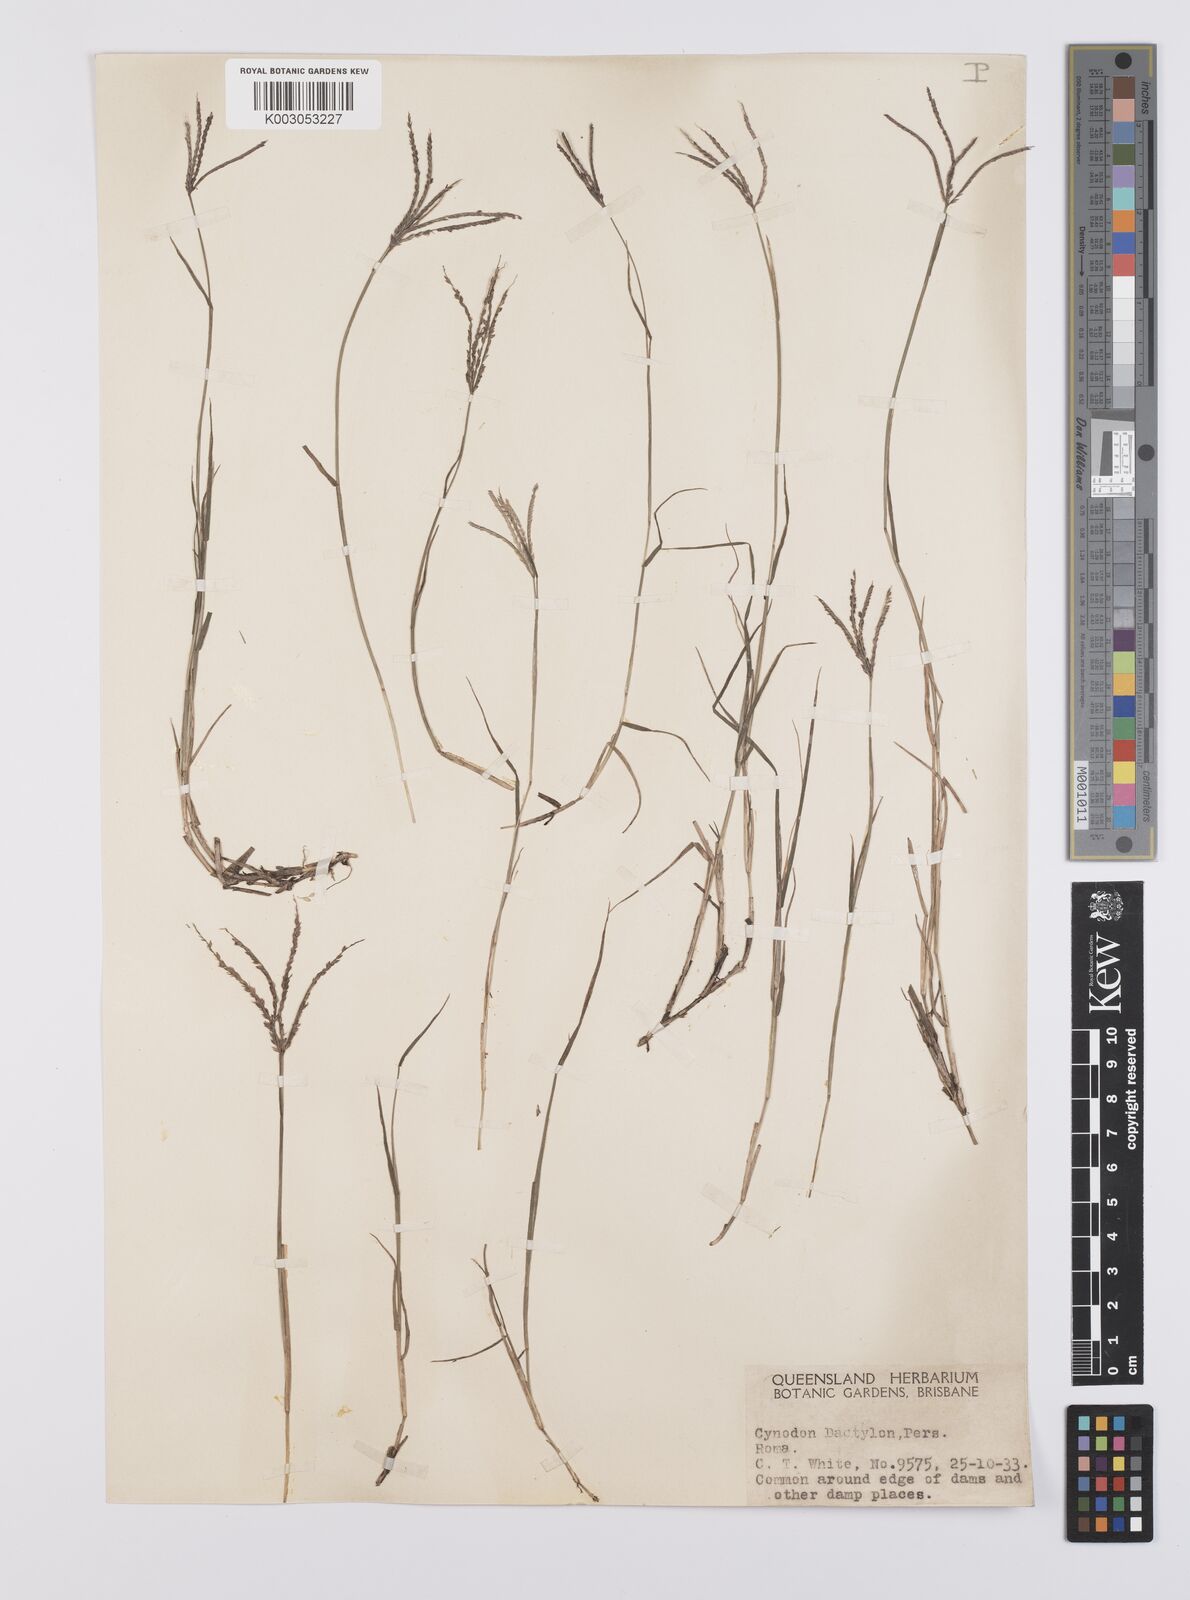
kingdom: Plantae
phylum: Tracheophyta
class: Liliopsida
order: Poales
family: Poaceae
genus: Cynodon
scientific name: Cynodon dactylon
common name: Bermuda grass
